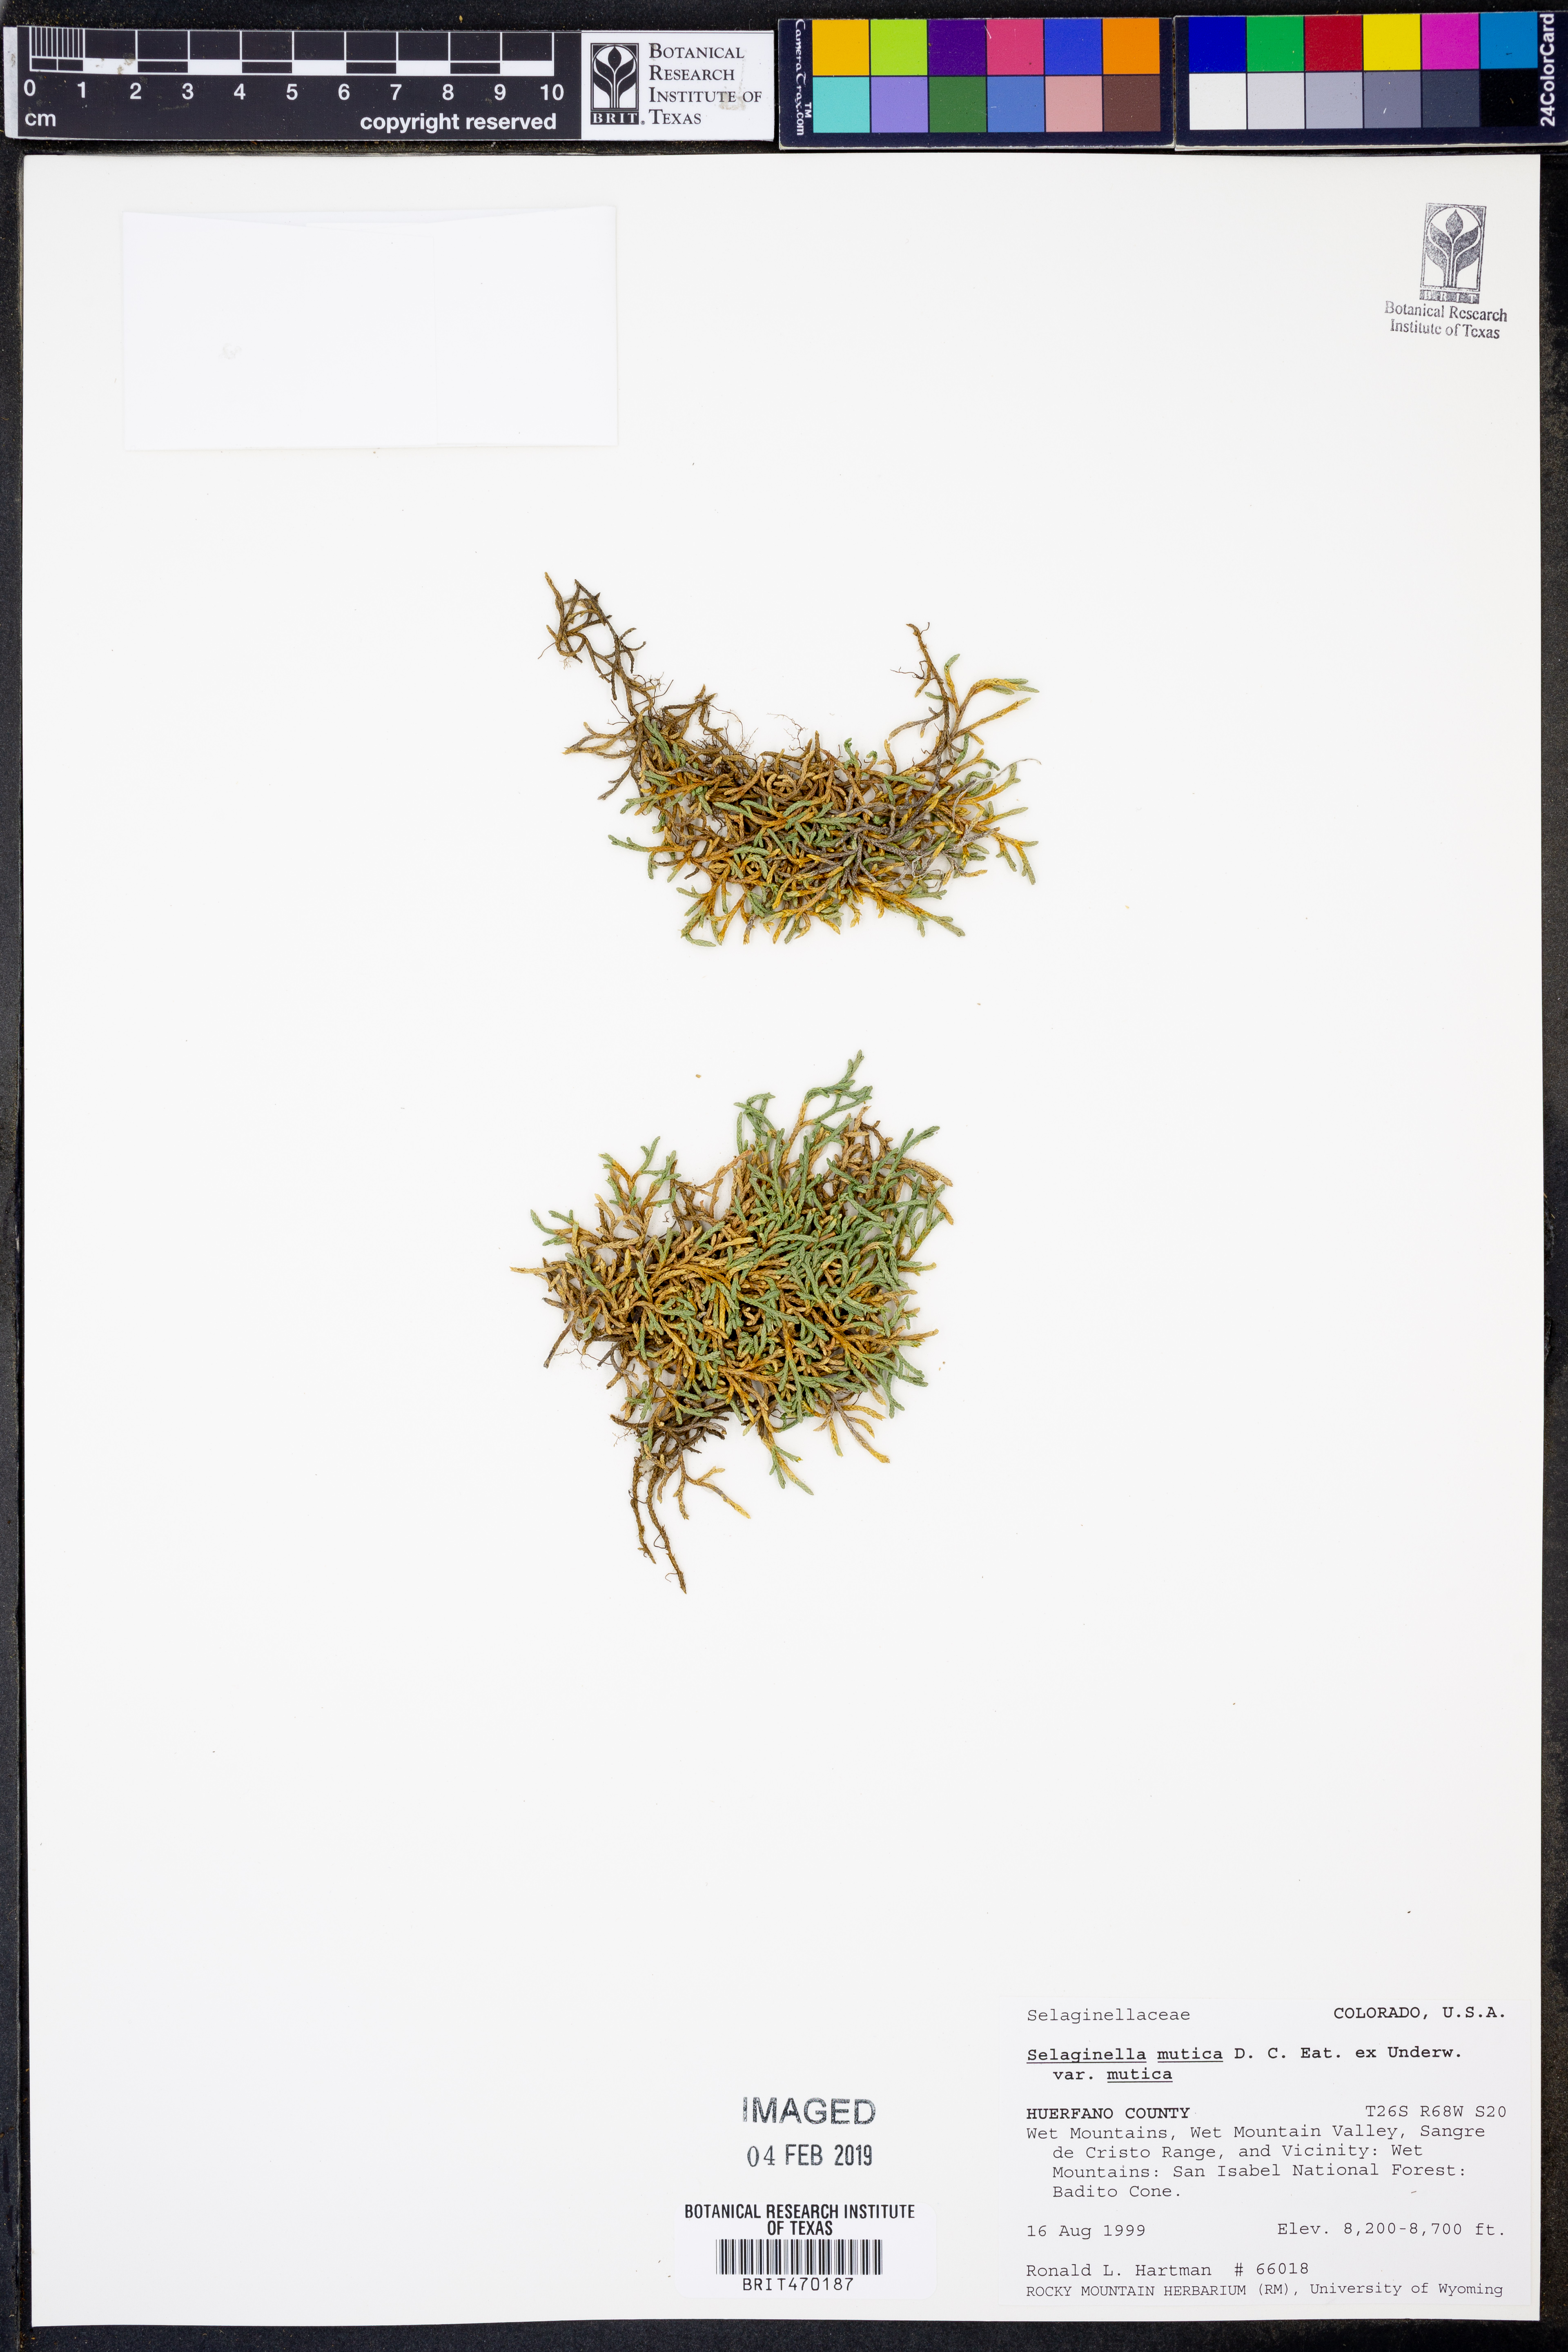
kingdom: Plantae
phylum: Tracheophyta
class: Lycopodiopsida
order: Selaginellales
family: Selaginellaceae
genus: Selaginella
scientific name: Selaginella mutica
